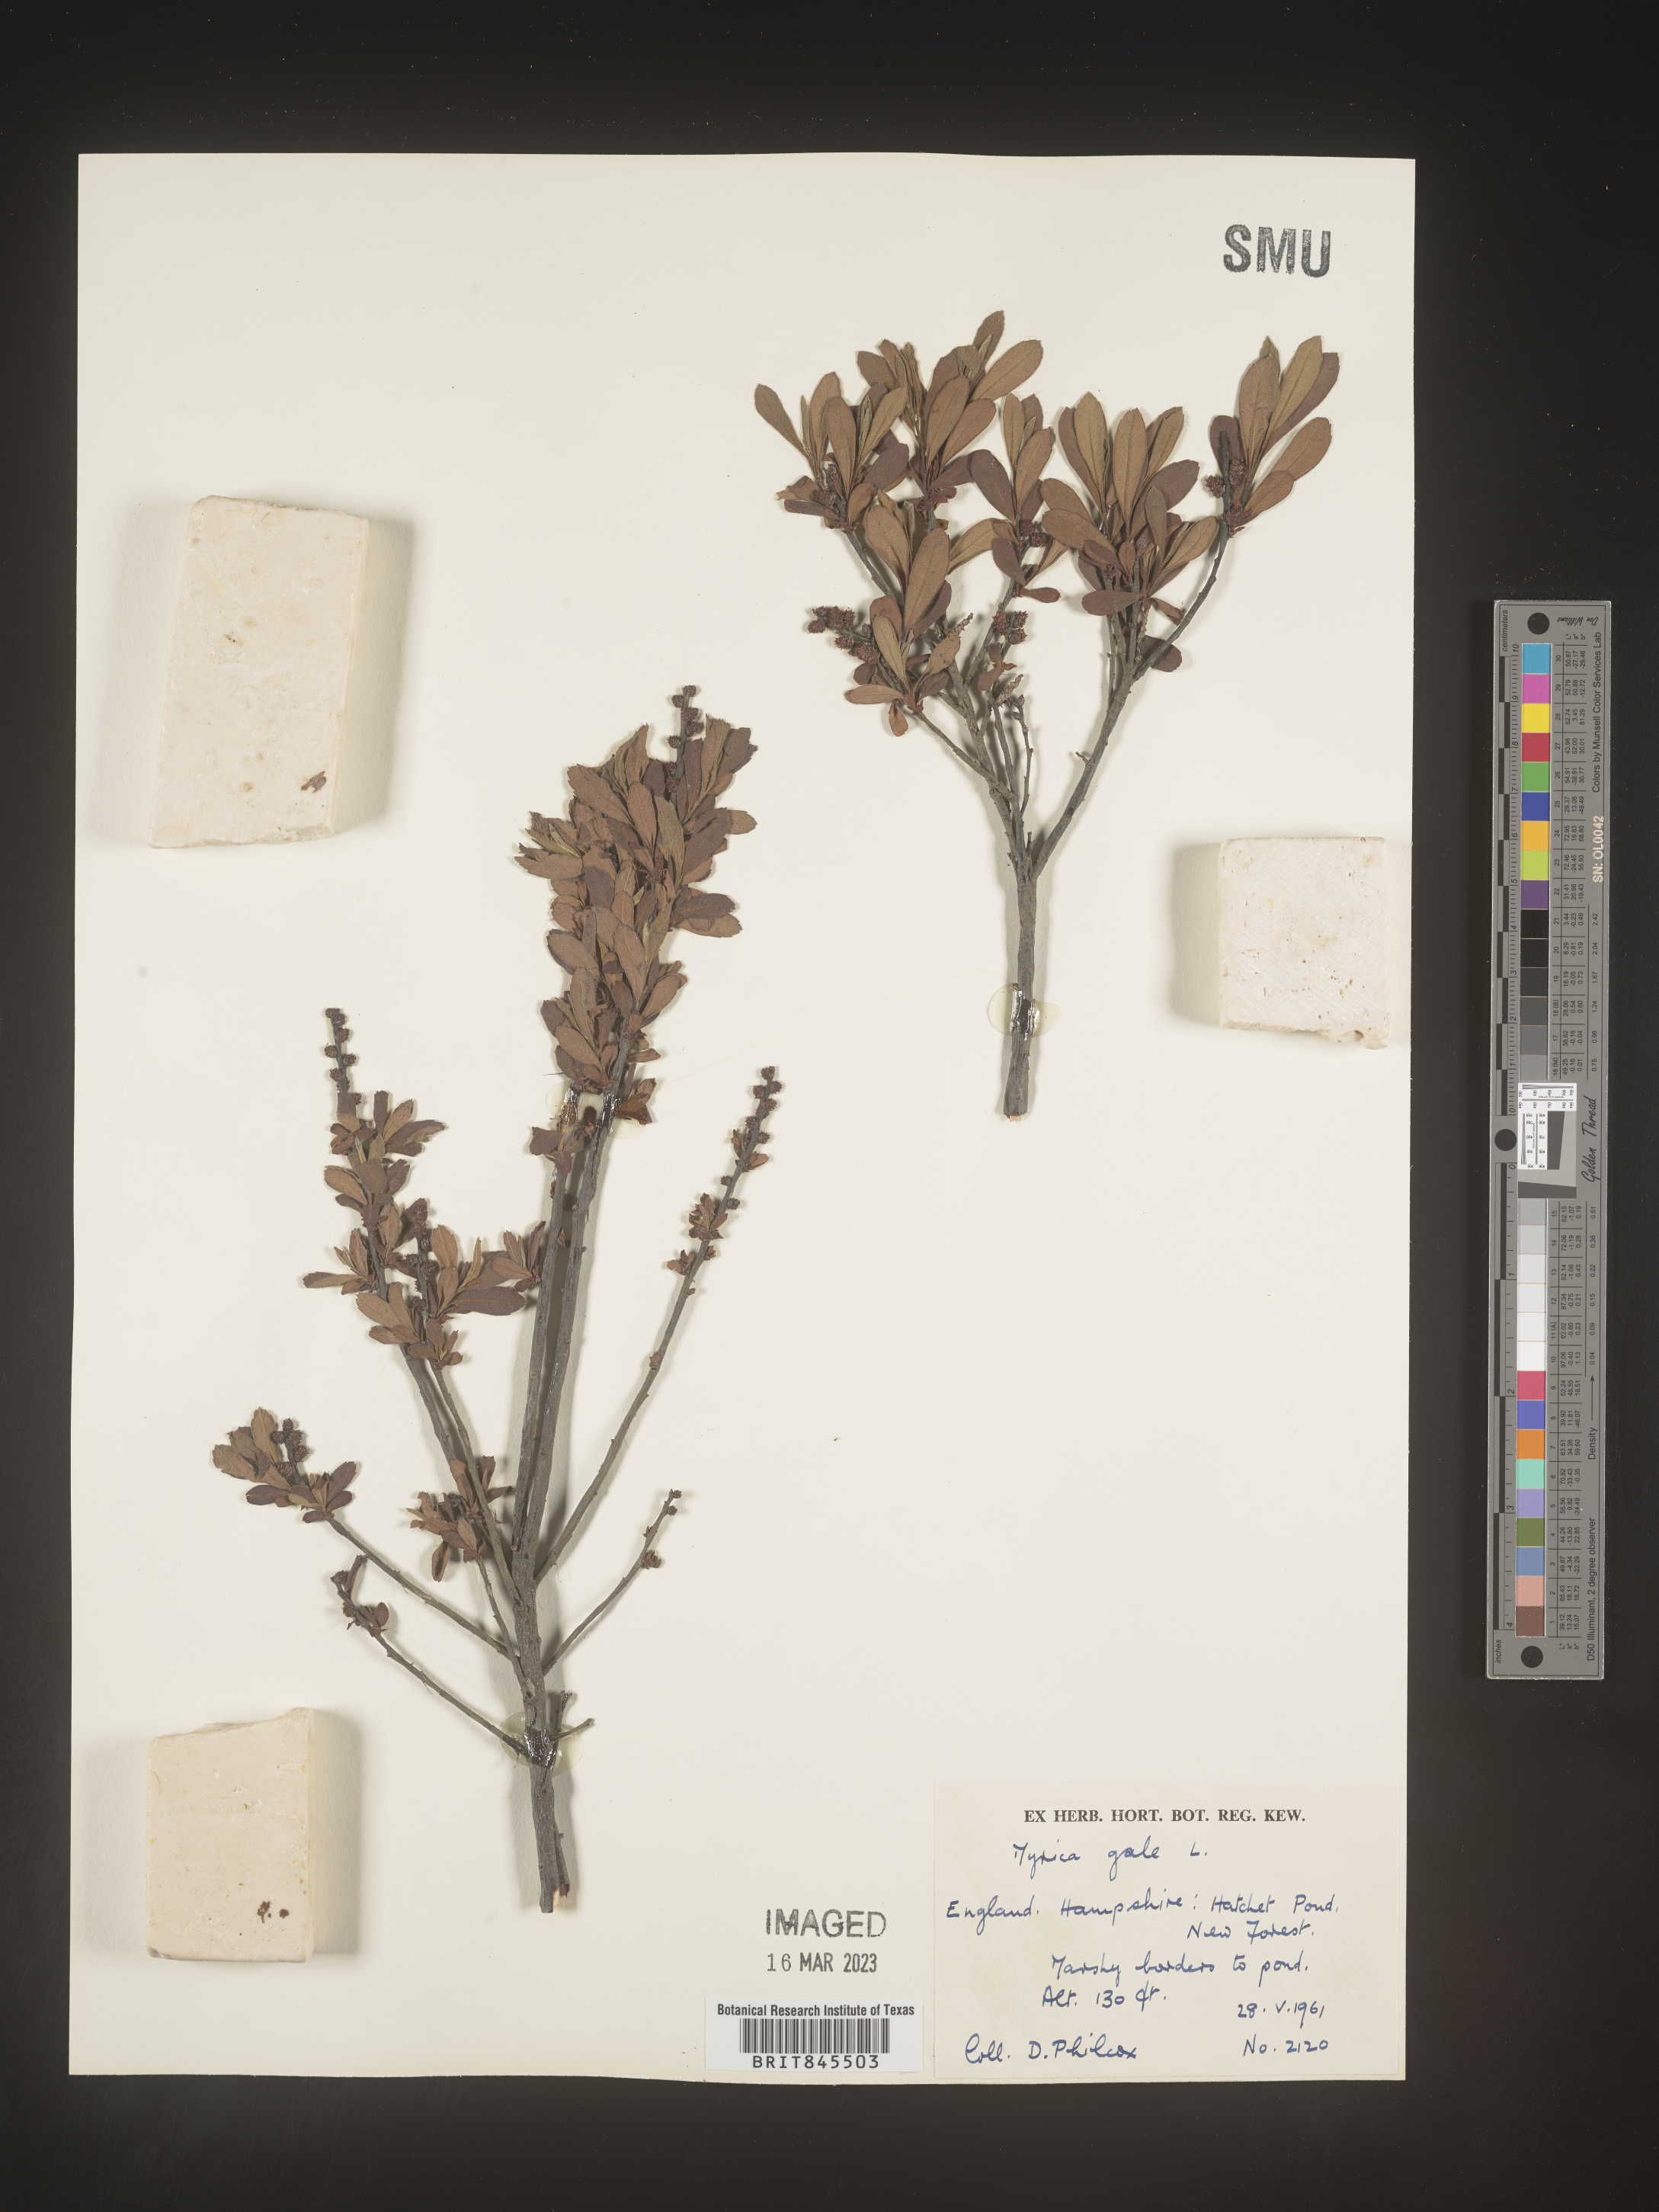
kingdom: Plantae
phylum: Tracheophyta
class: Magnoliopsida
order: Fagales
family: Myricaceae
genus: Myrica
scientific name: Myrica
